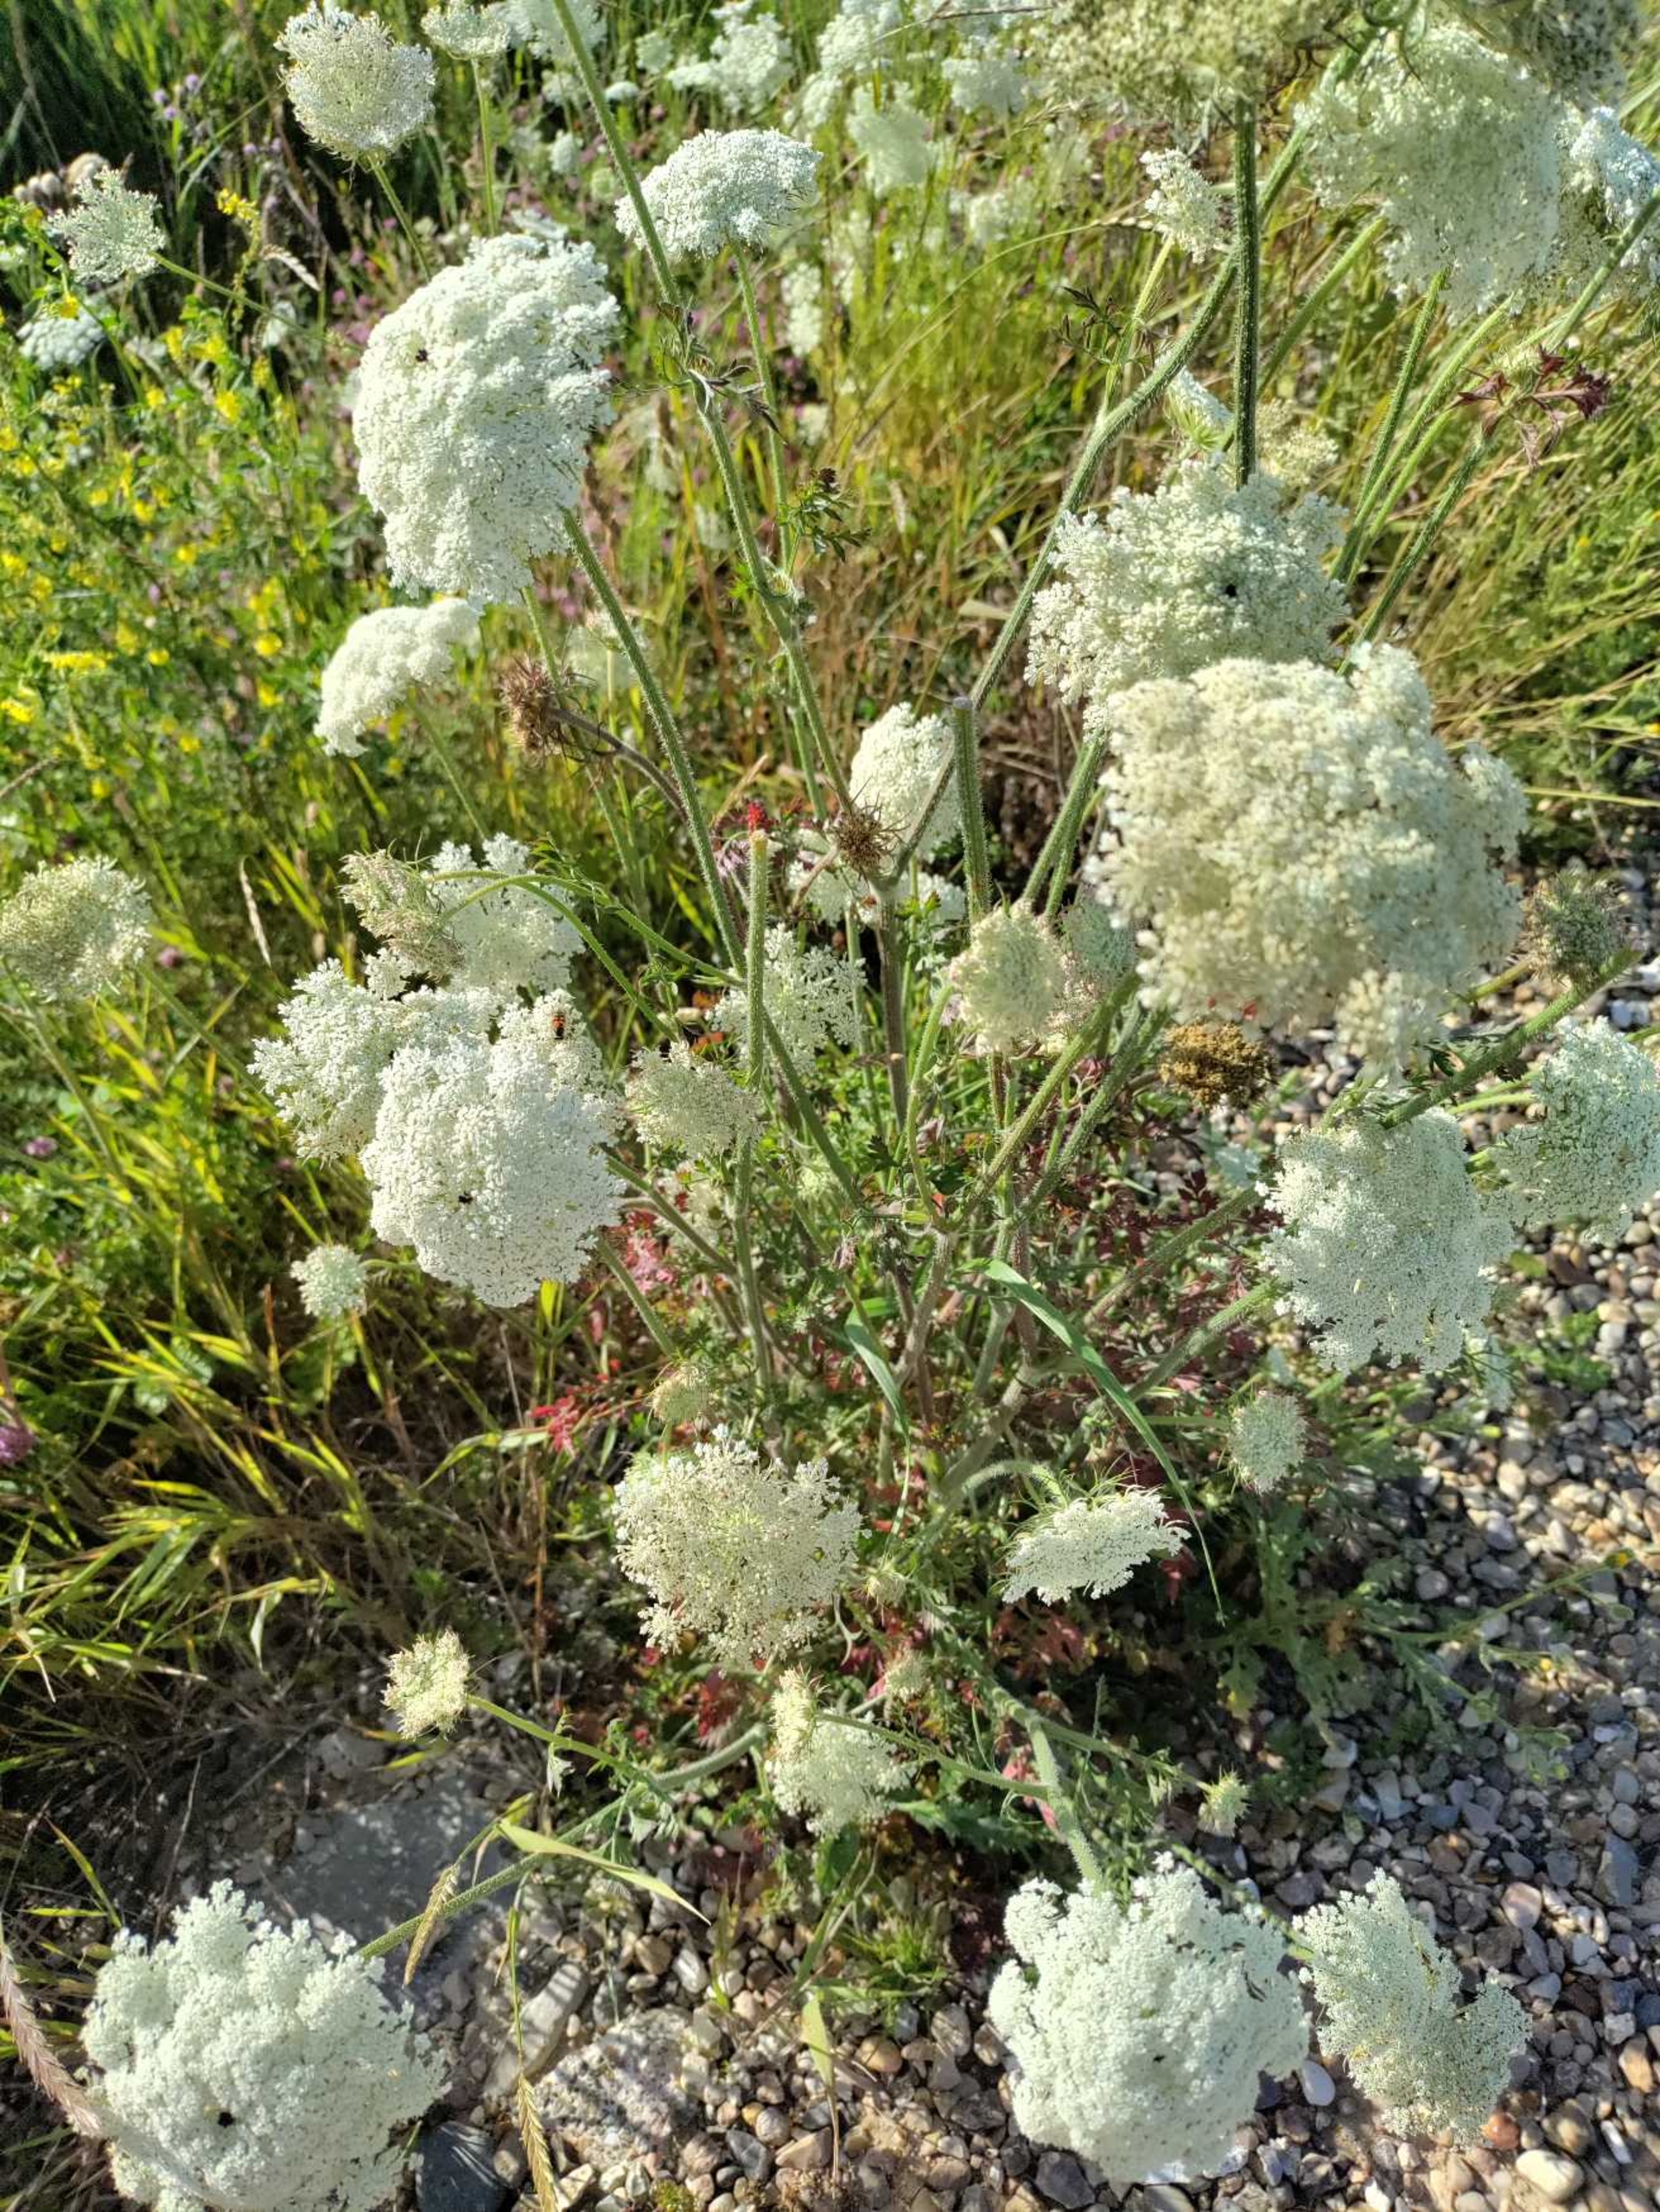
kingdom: Plantae
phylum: Tracheophyta
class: Magnoliopsida
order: Apiales
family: Apiaceae
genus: Daucus
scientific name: Daucus carota
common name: Vild gulerod
